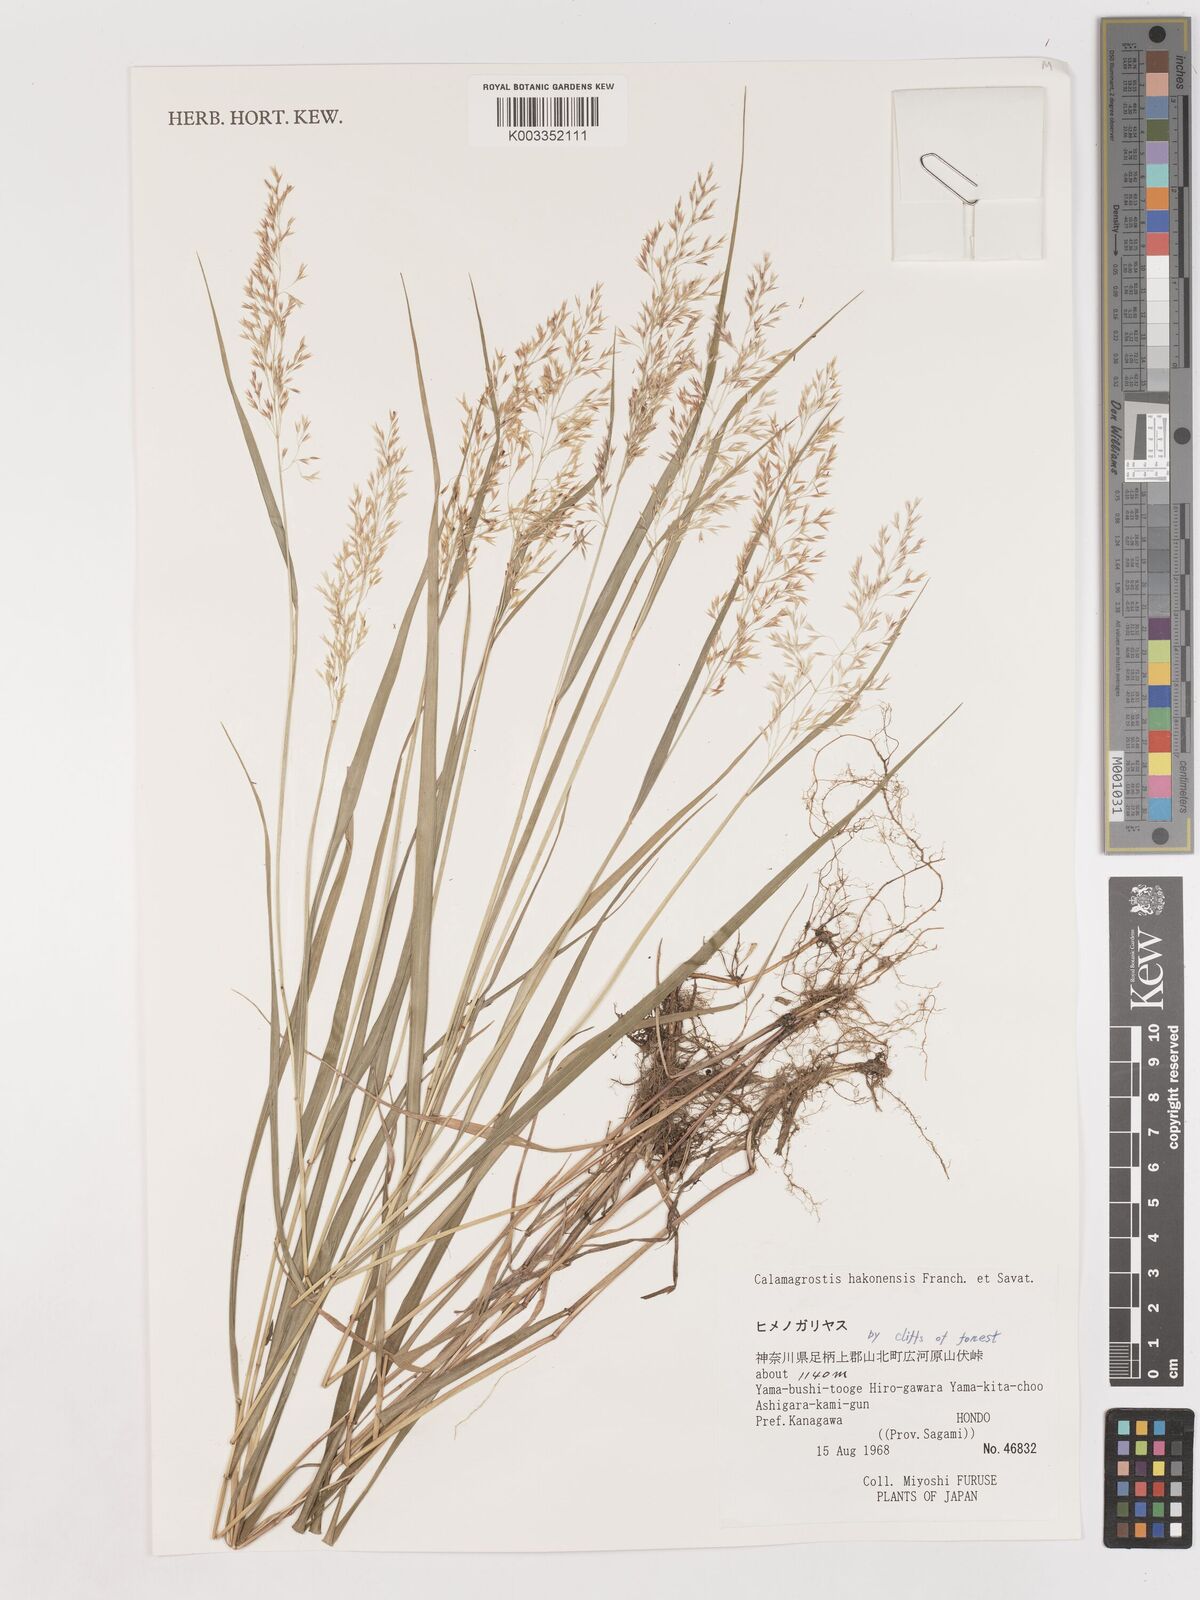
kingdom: Plantae
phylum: Tracheophyta
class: Liliopsida
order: Poales
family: Poaceae
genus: Calamagrostis
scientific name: Calamagrostis hakonensis
